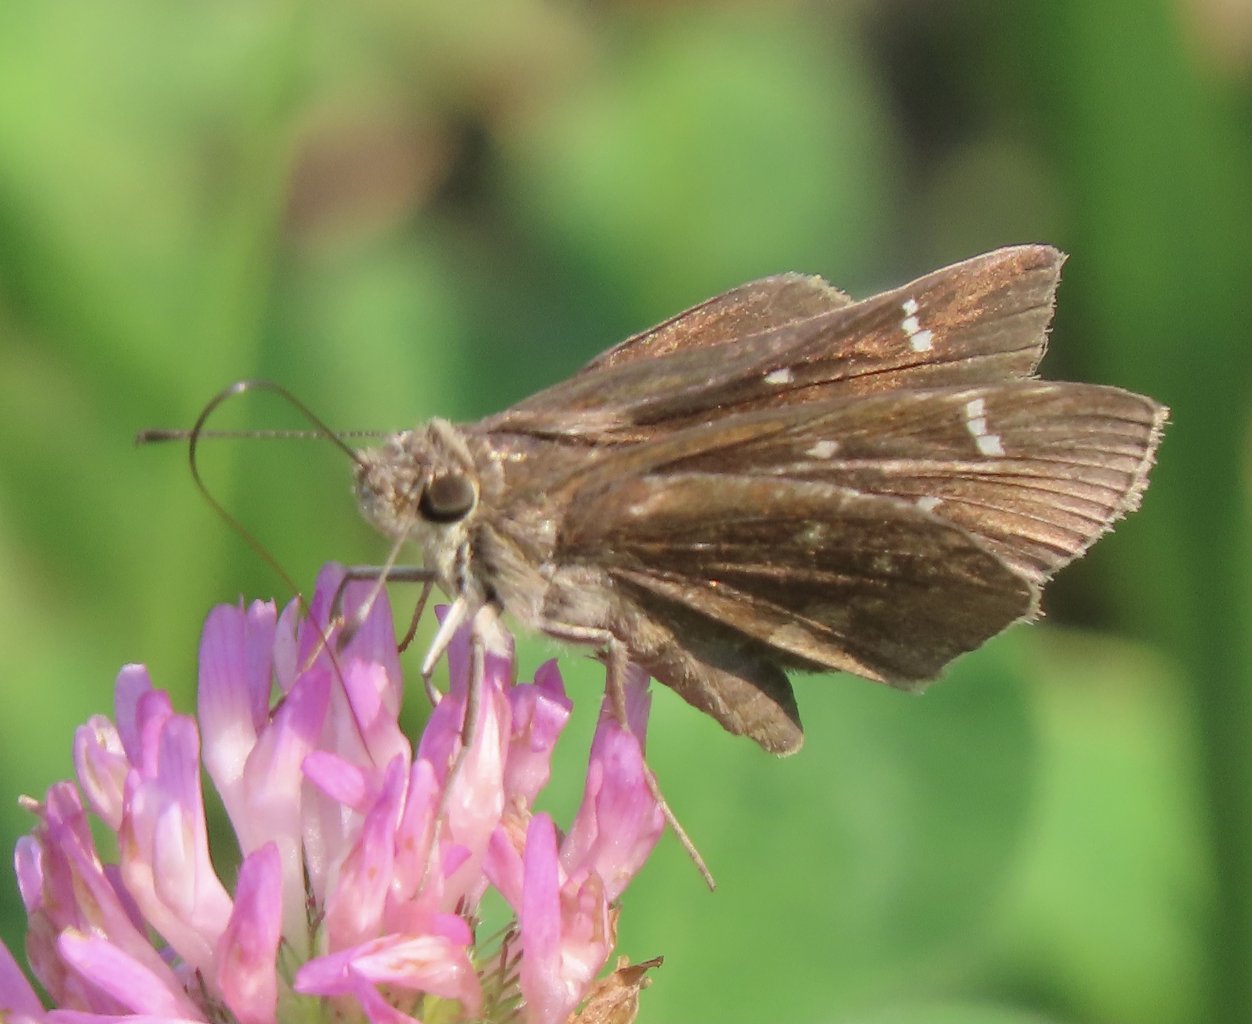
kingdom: Animalia
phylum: Arthropoda
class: Insecta
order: Lepidoptera
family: Hesperiidae
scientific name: Hesperiidae
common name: Skippers
